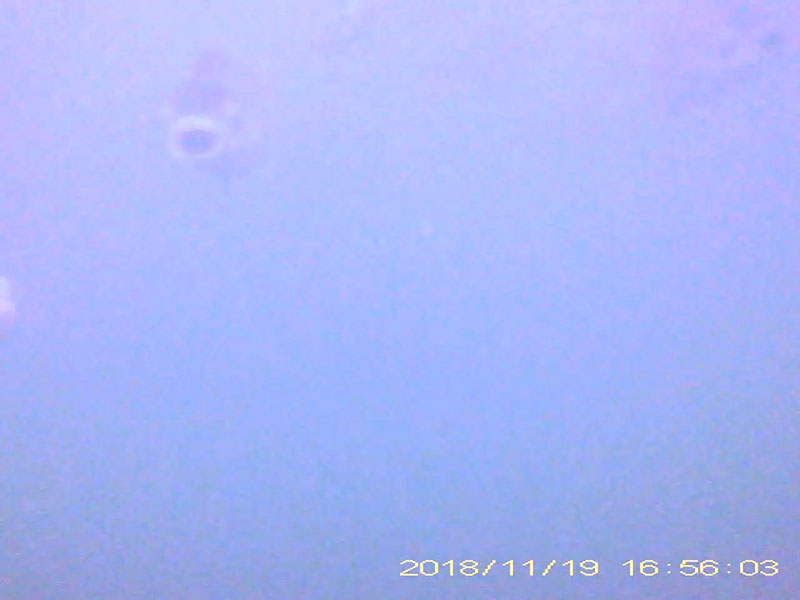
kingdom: Animalia
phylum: Chordata
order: Cypriniformes
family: Cyprinidae
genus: Carassius
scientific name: Carassius cuvieri
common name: ゲンゴロウブナ
